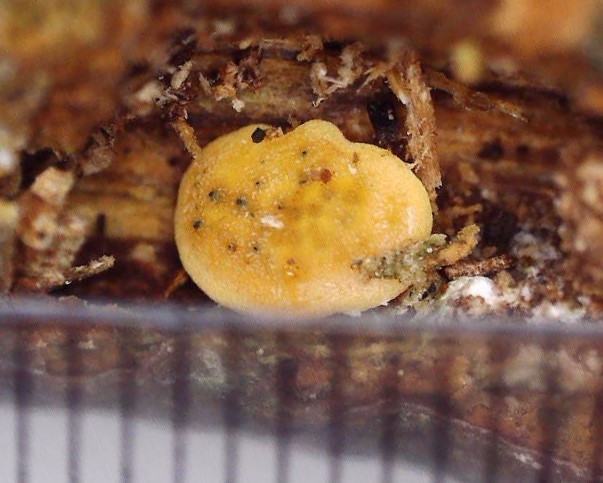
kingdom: Fungi
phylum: Ascomycota
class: Sordariomycetes
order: Hypocreales
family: Hypocreaceae
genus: Trichoderma
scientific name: Trichoderma aureoviride
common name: æggegul kødkerne
